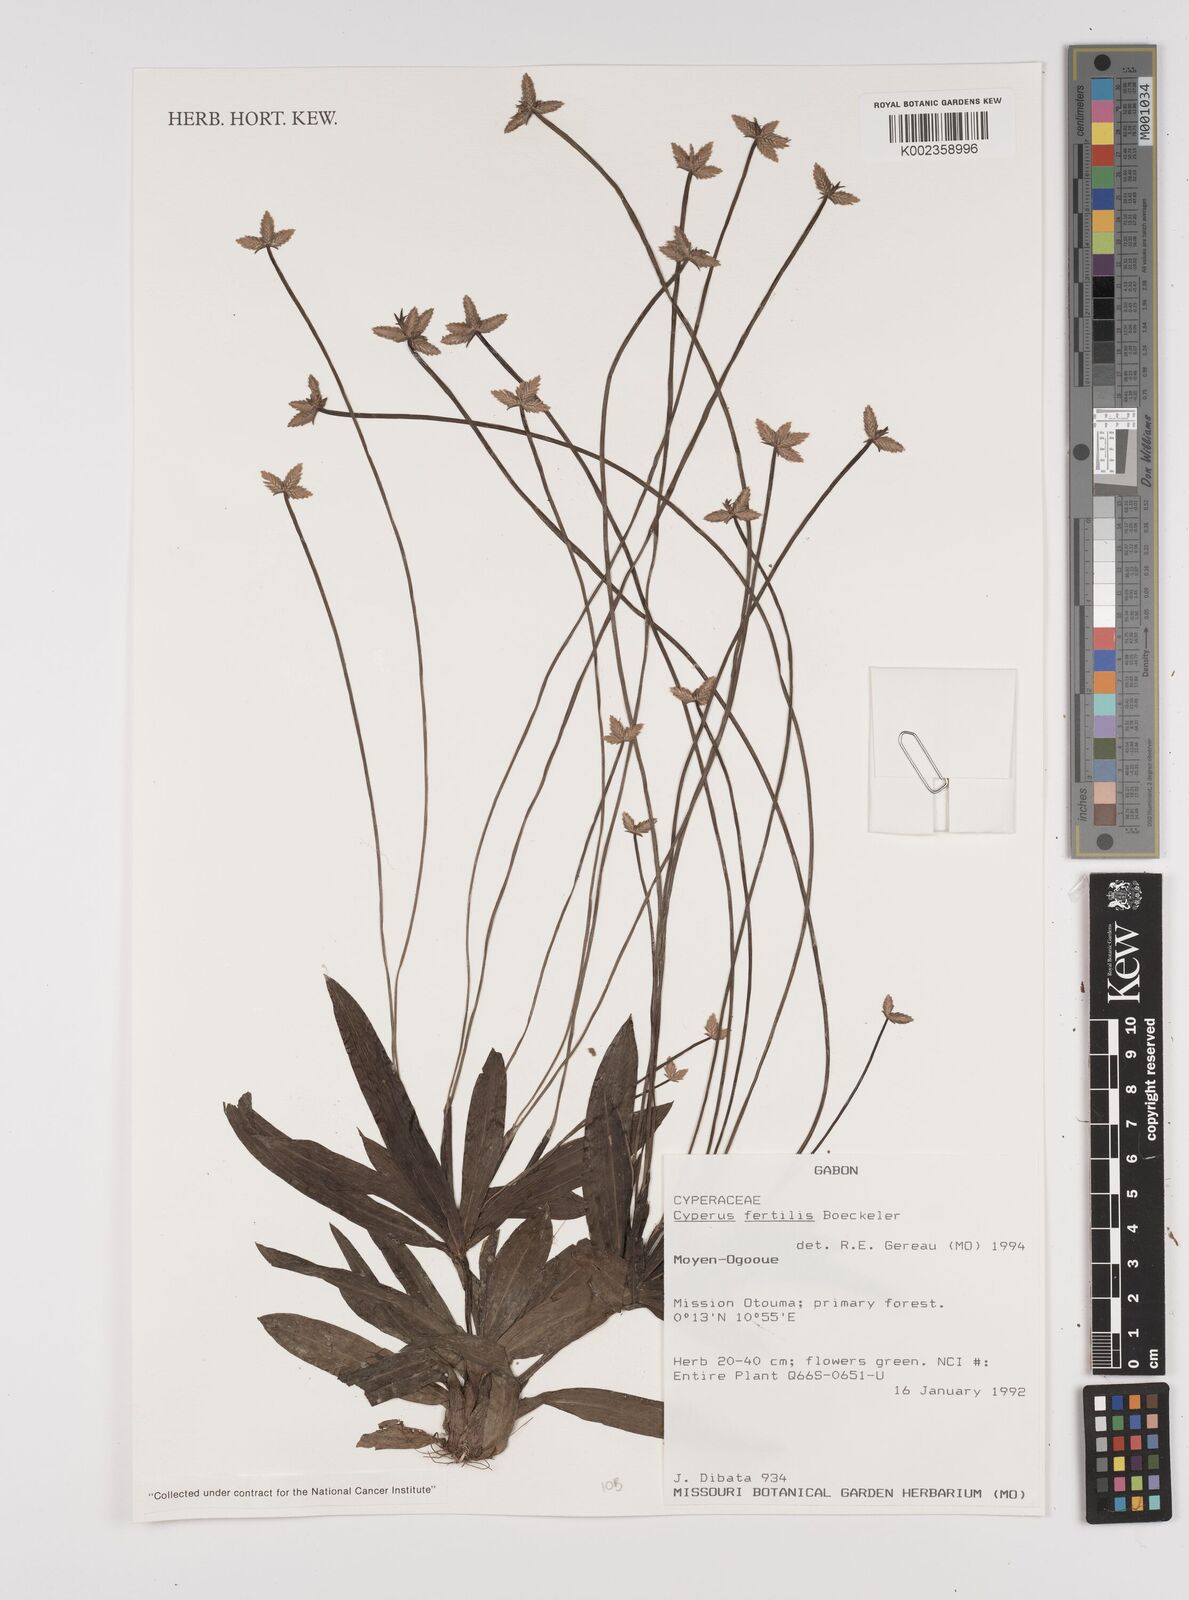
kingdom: Plantae
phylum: Tracheophyta
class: Liliopsida
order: Poales
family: Cyperaceae
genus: Cyperus
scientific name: Cyperus fertilis
